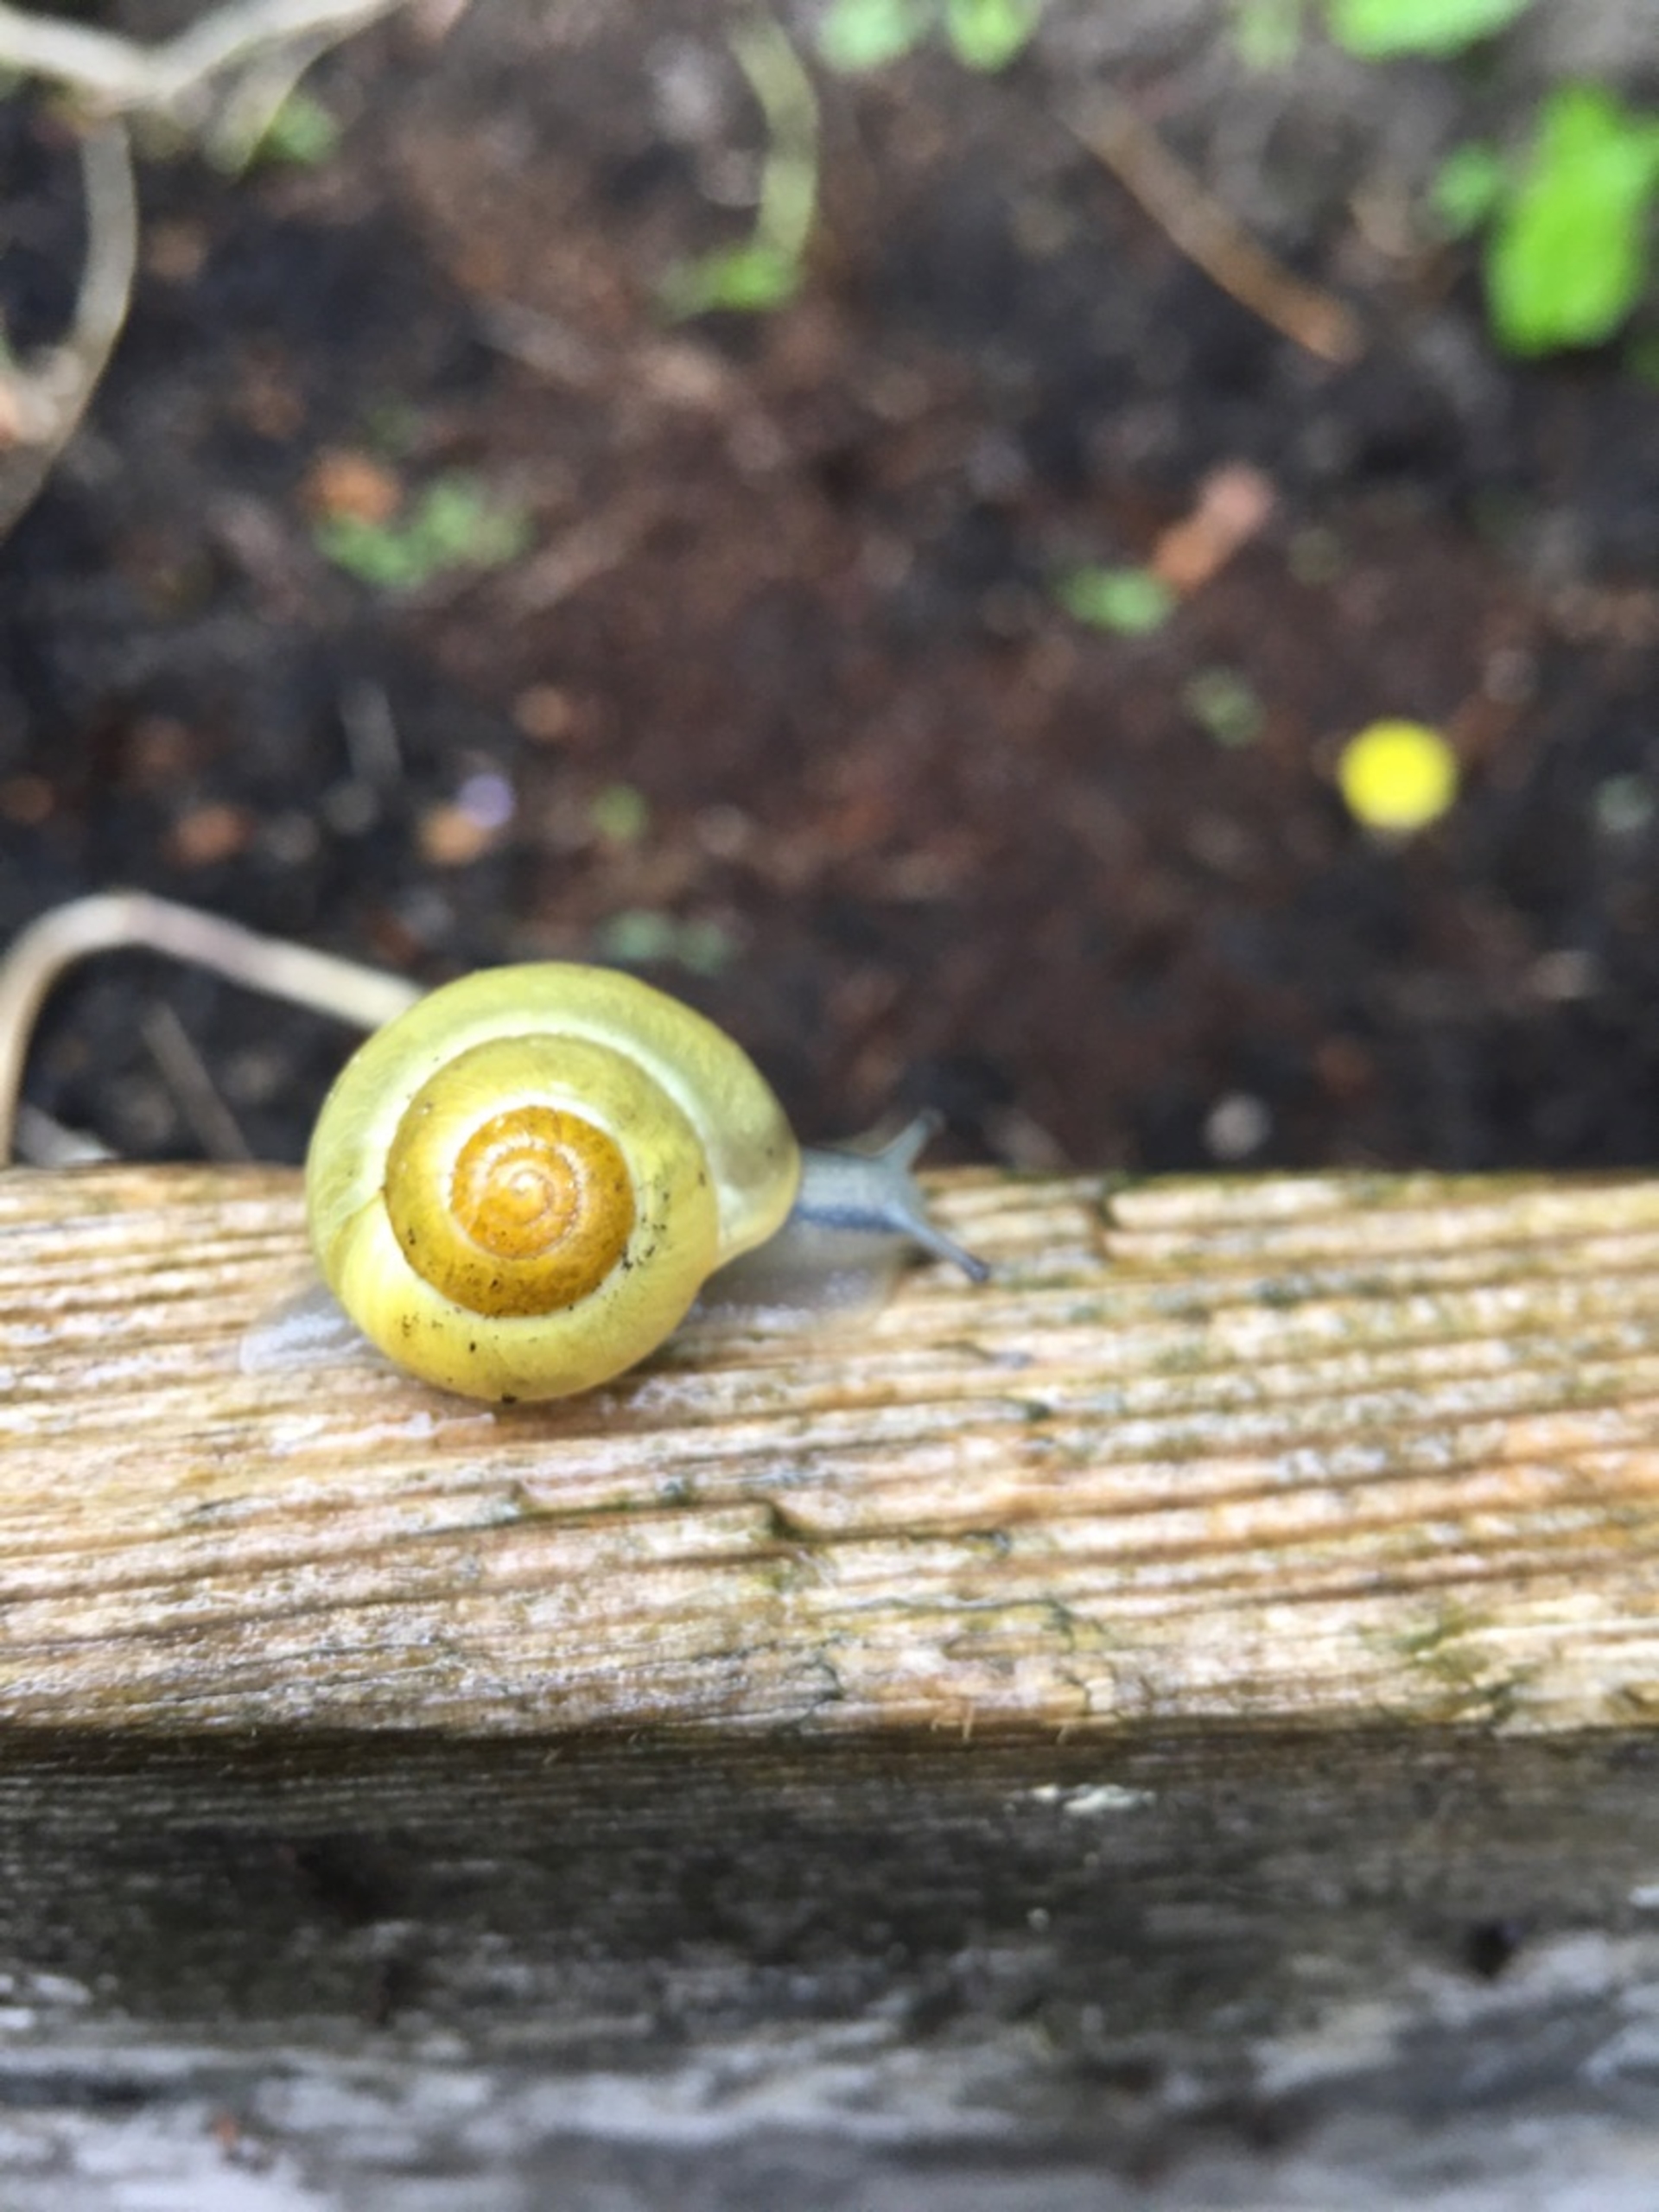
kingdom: Animalia
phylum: Mollusca
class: Gastropoda
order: Stylommatophora
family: Helicidae
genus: Cepaea
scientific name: Cepaea hortensis
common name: Havesnegl
